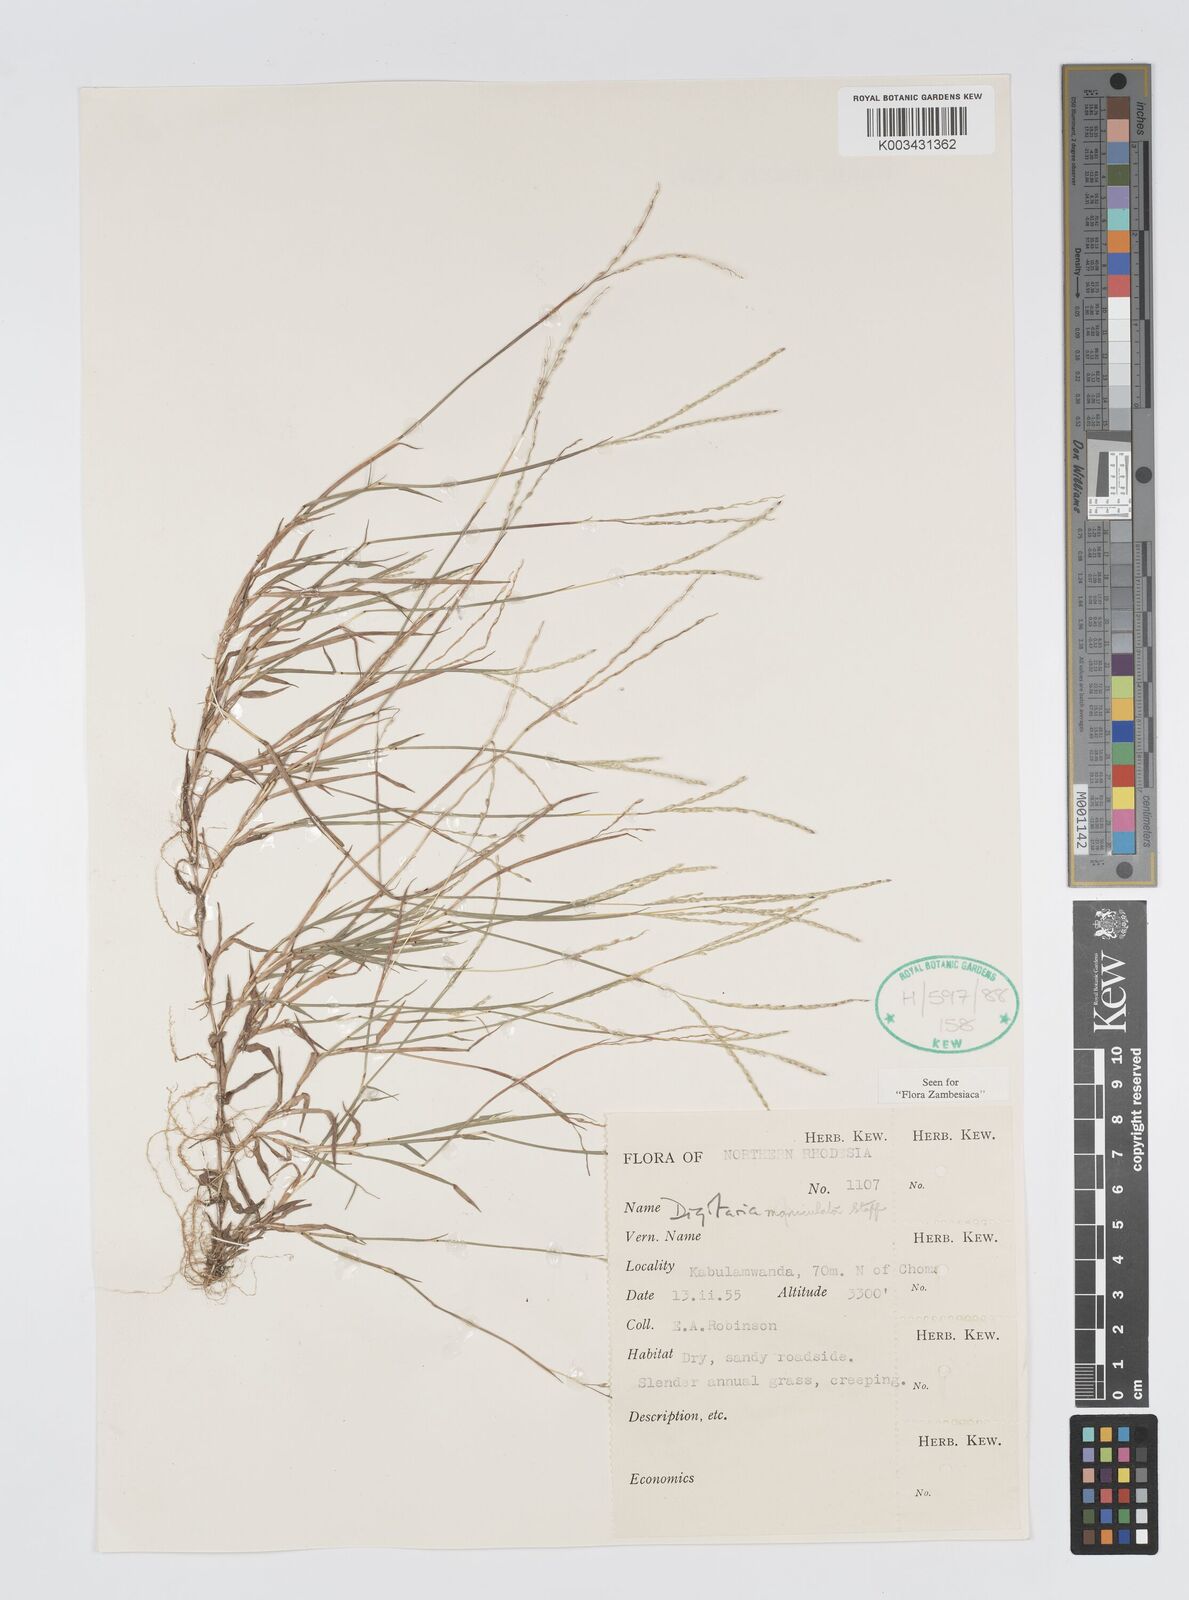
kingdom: Plantae
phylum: Tracheophyta
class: Liliopsida
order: Poales
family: Poaceae
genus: Digitaria
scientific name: Digitaria maniculata
